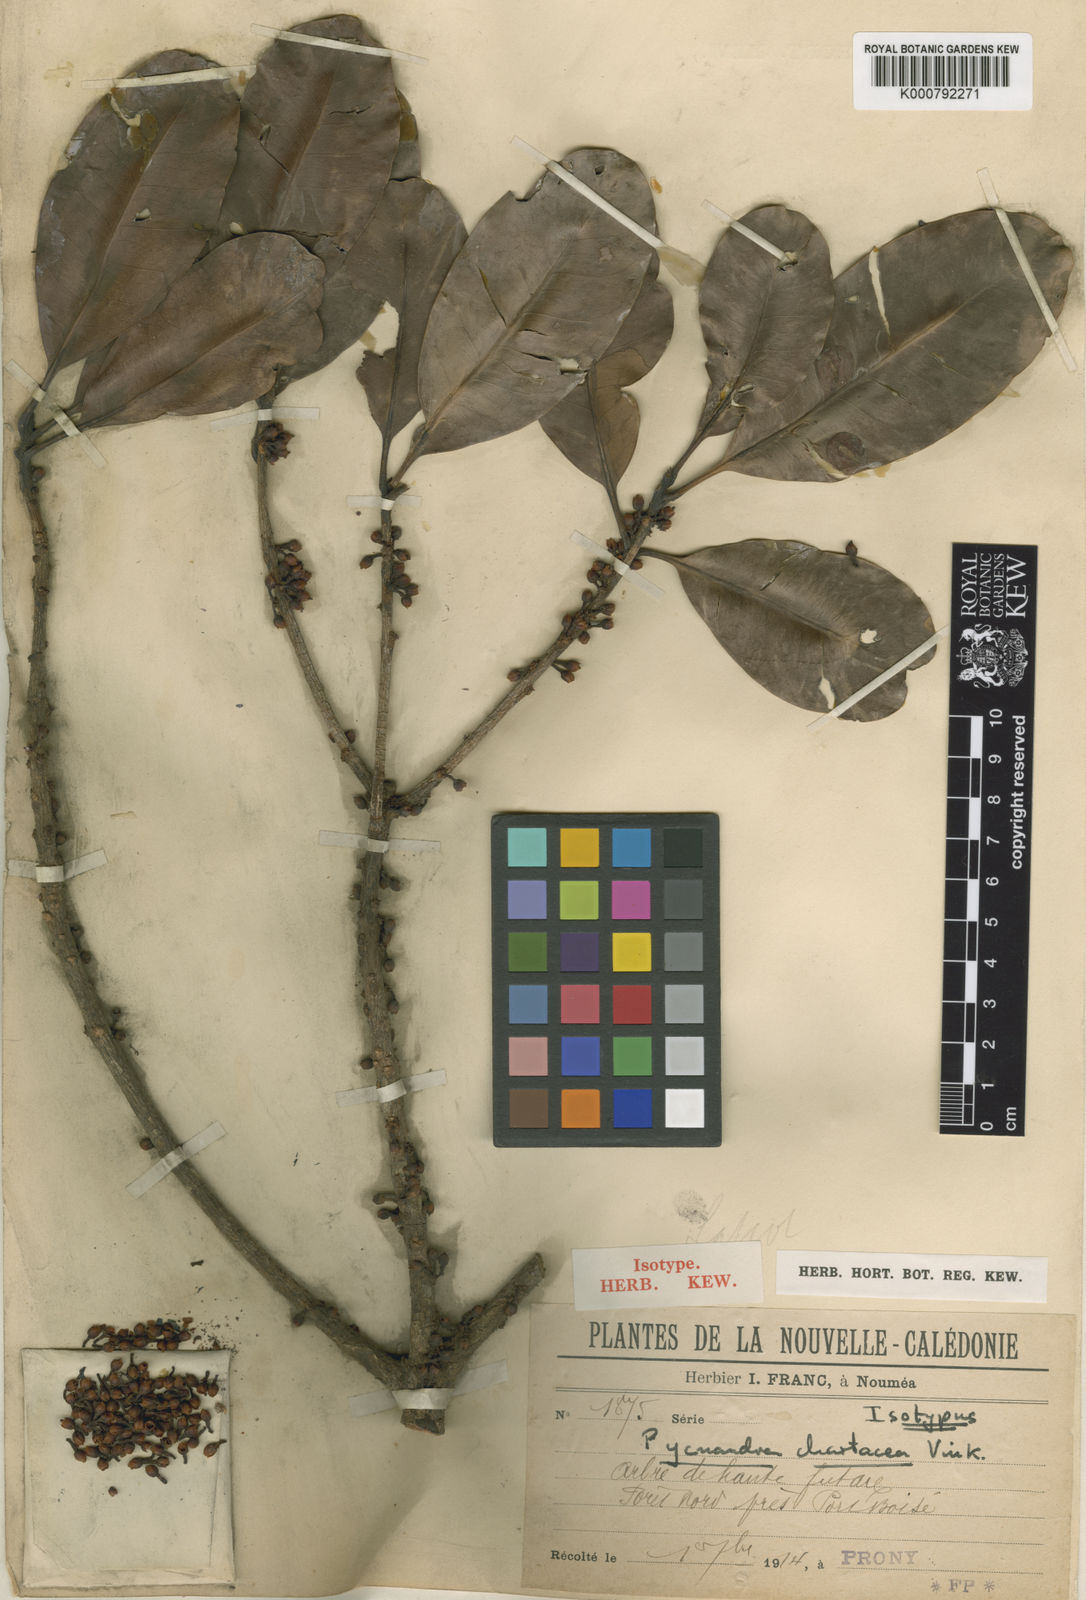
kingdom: Plantae
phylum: Tracheophyta
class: Magnoliopsida
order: Ericales
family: Sapotaceae
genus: Pycnandra
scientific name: Pycnandra chartacea
